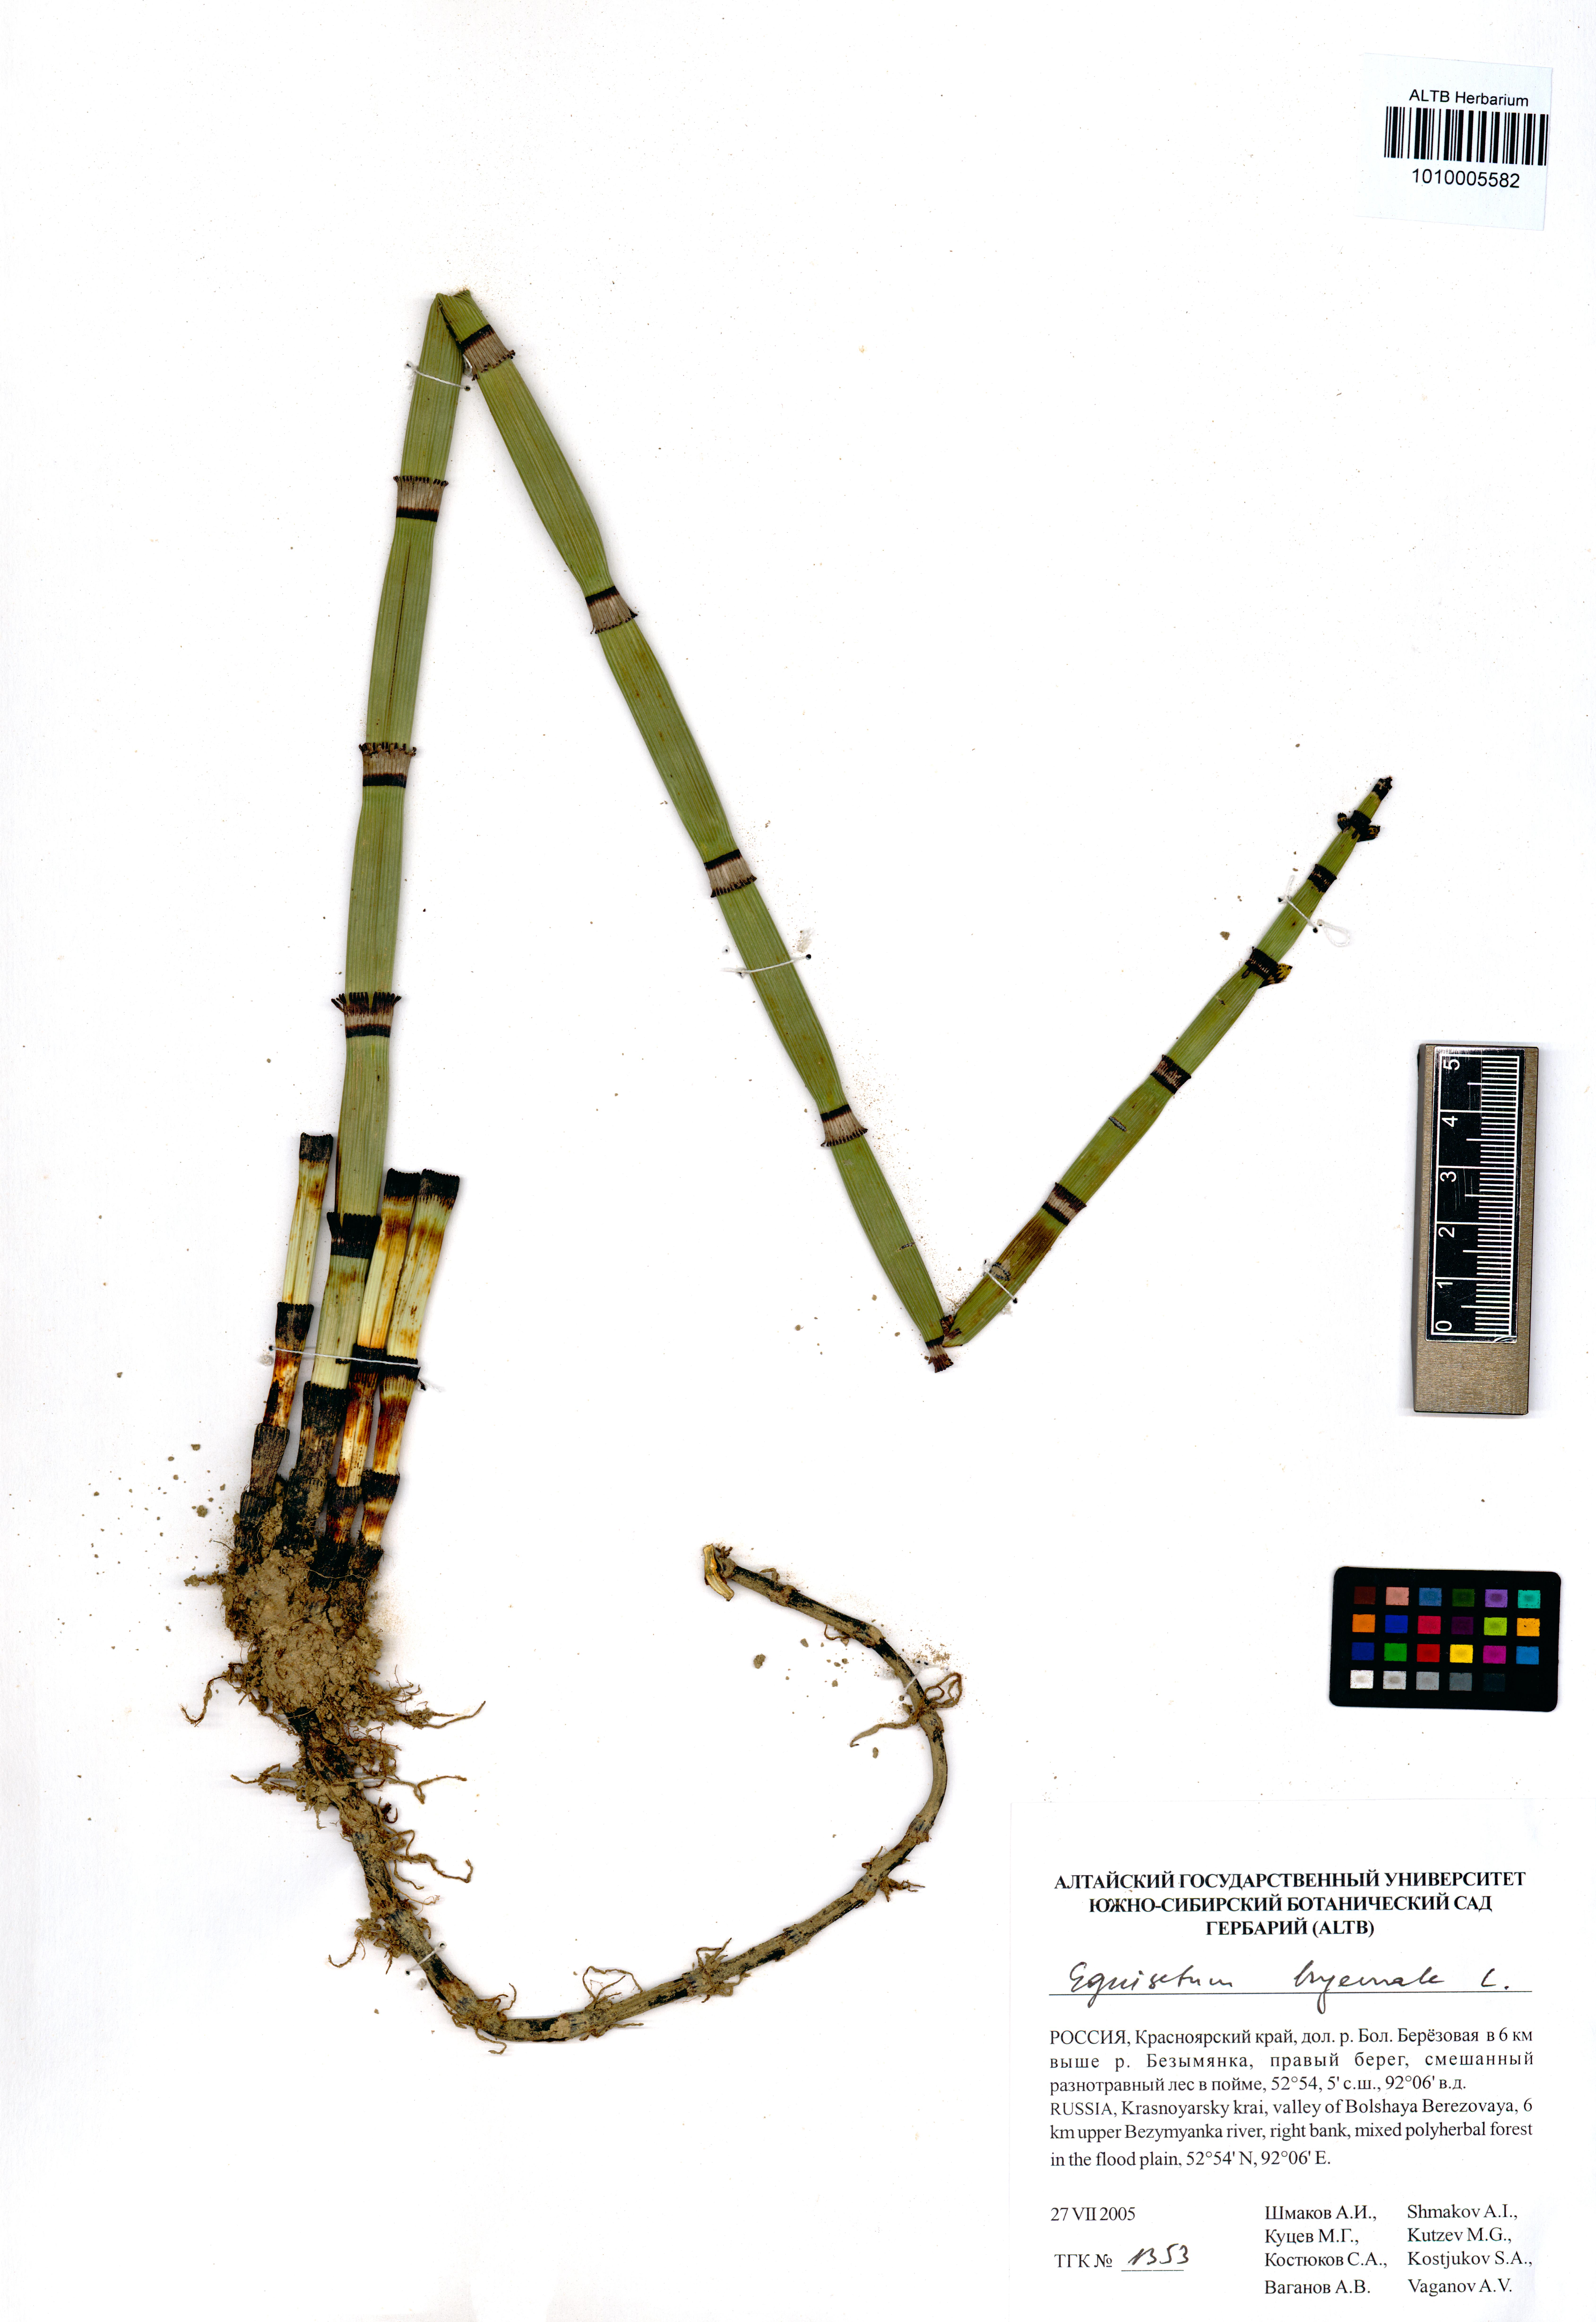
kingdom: Plantae
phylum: Tracheophyta
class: Polypodiopsida
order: Equisetales
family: Equisetaceae
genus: Equisetum
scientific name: Equisetum hyemale
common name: Rough horsetail
